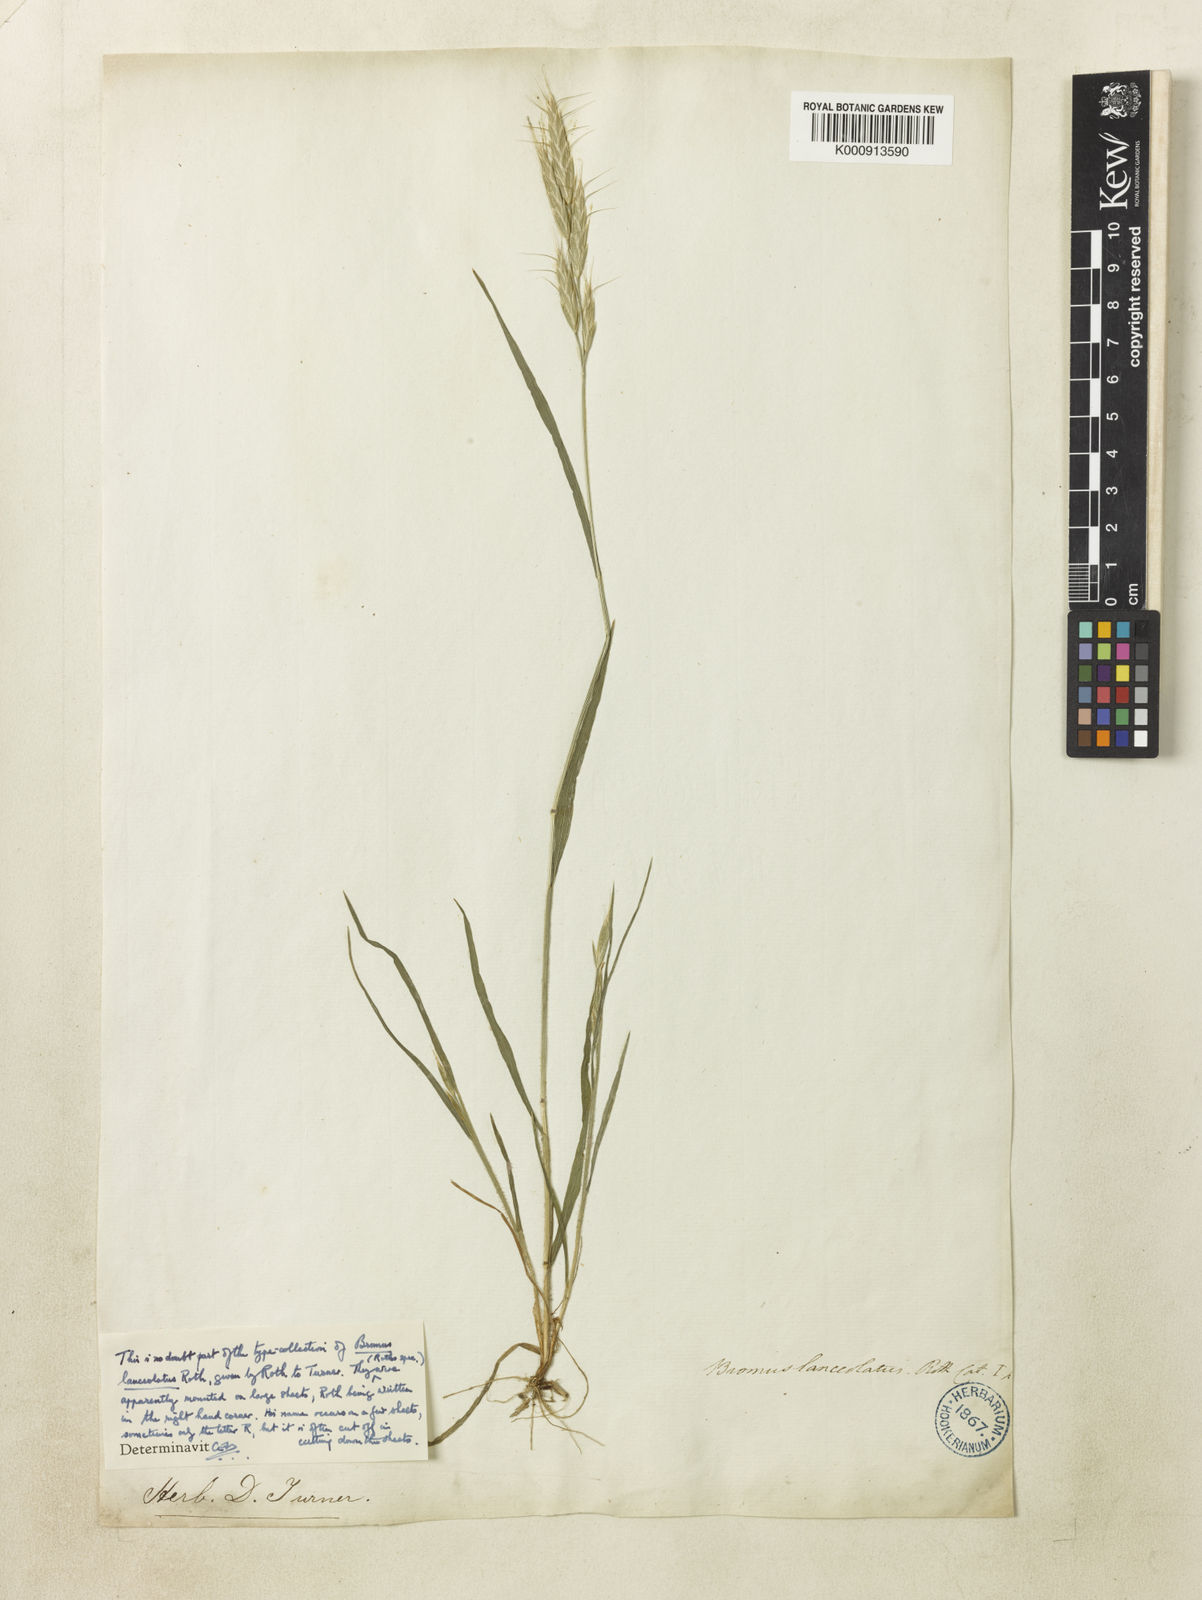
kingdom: Plantae
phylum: Tracheophyta
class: Liliopsida
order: Poales
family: Poaceae
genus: Bromus
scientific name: Bromus lanceolatus
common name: Mediterranean brome
